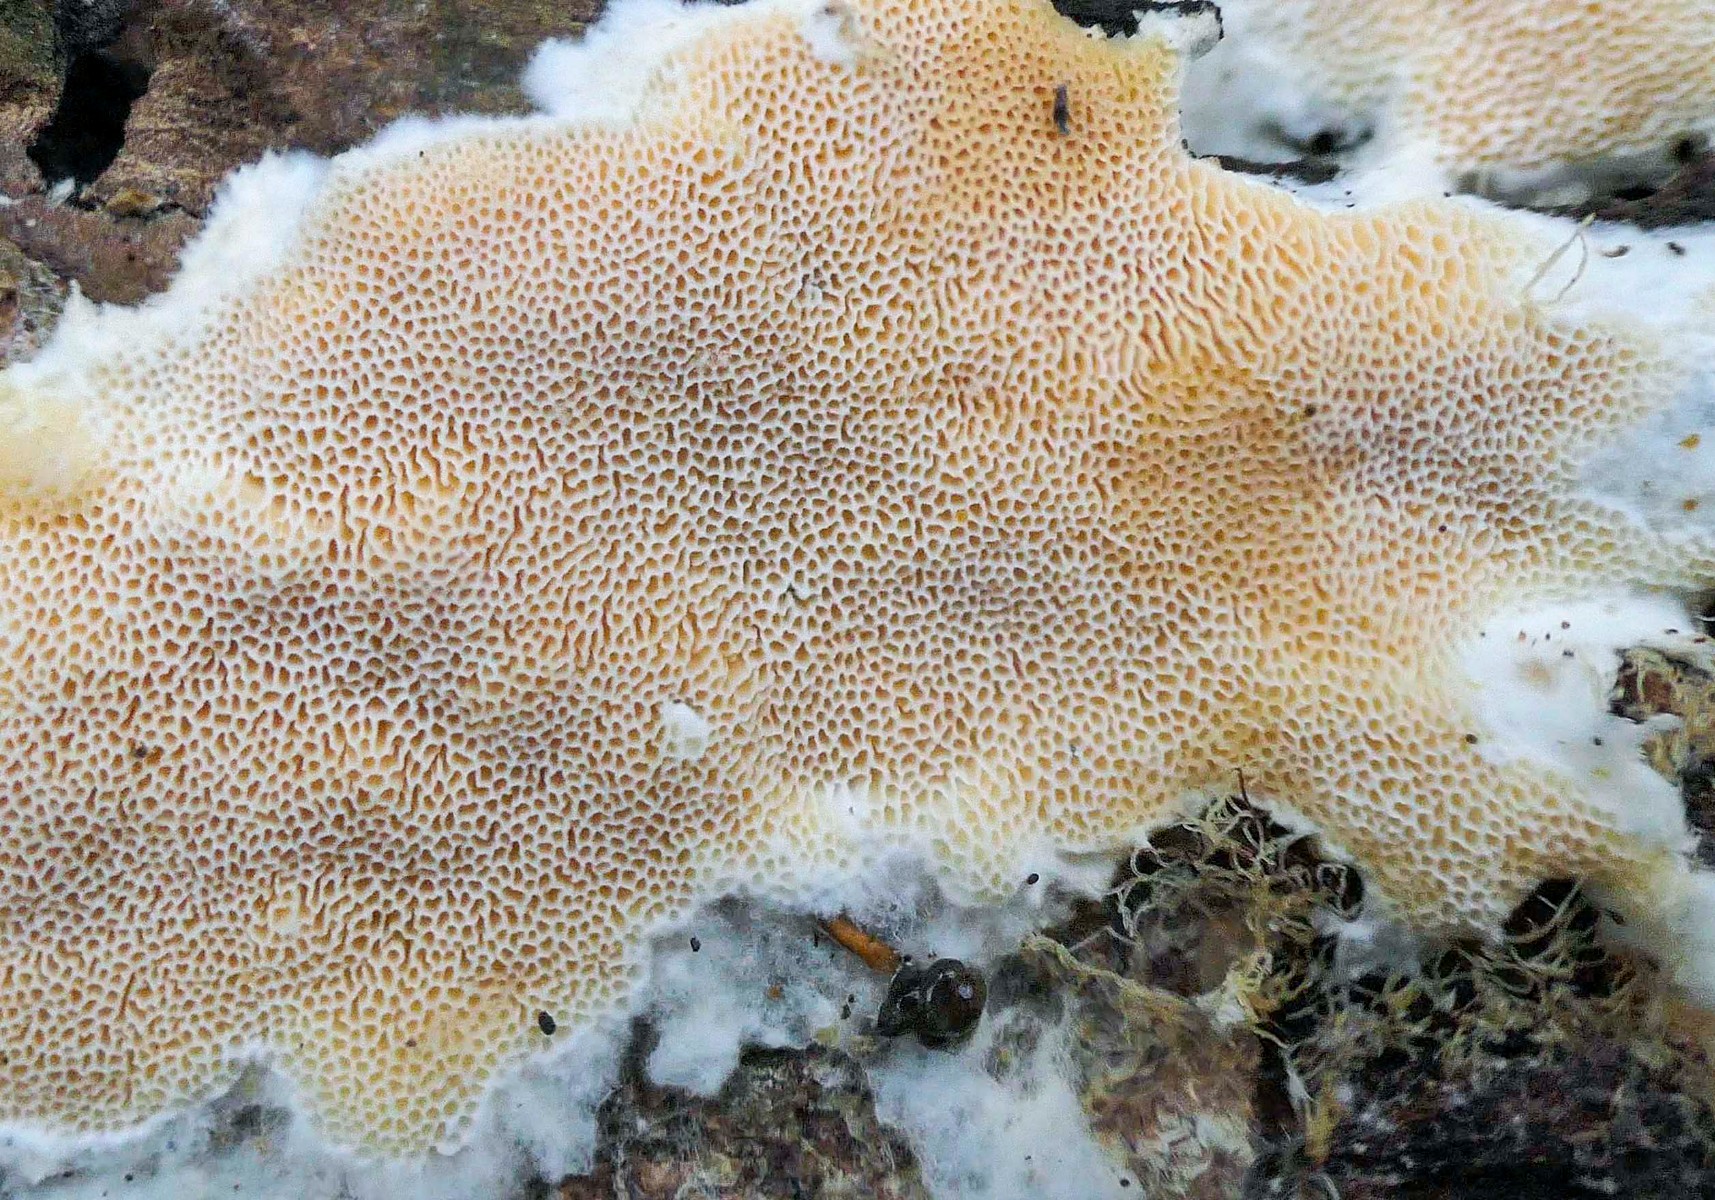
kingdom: Fungi
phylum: Basidiomycota
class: Agaricomycetes
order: Polyporales
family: Steccherinaceae
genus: Junghuhnia
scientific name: Junghuhnia
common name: skønporesvamp
